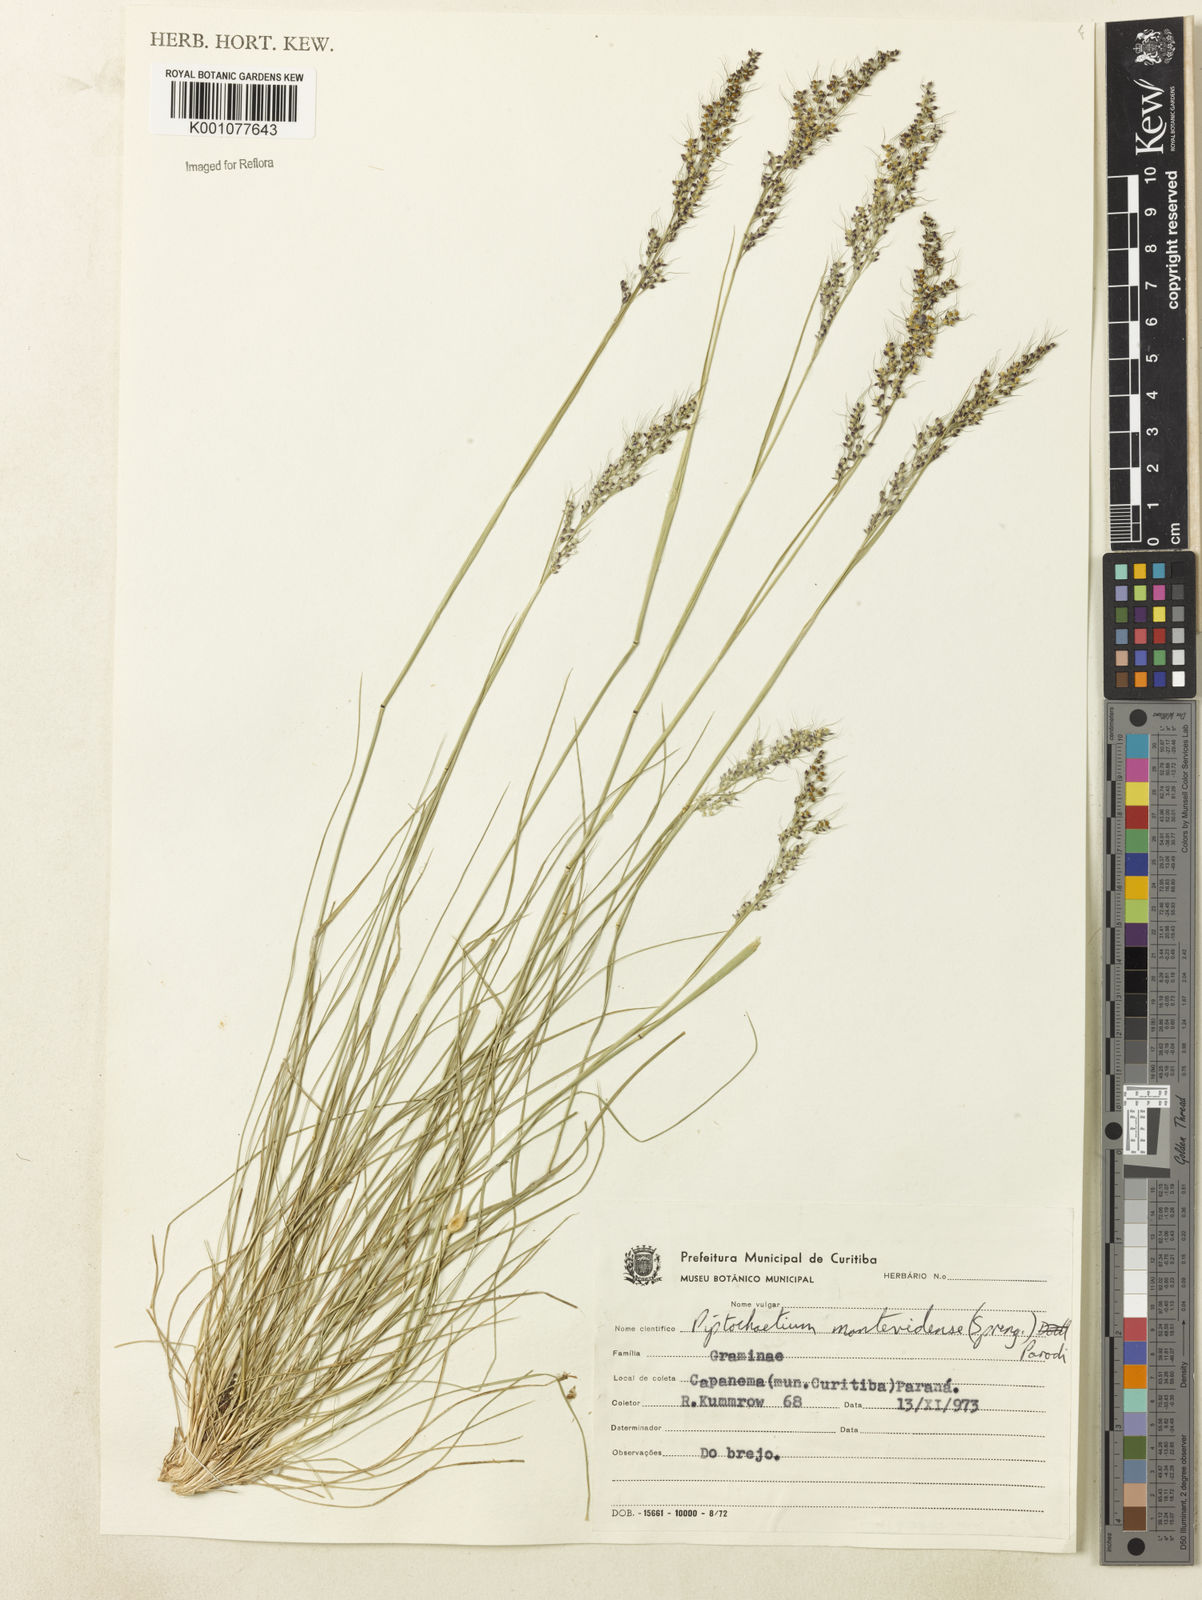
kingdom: Plantae
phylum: Tracheophyta
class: Liliopsida
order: Poales
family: Poaceae
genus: Piptochaetium
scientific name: Piptochaetium montevidense
